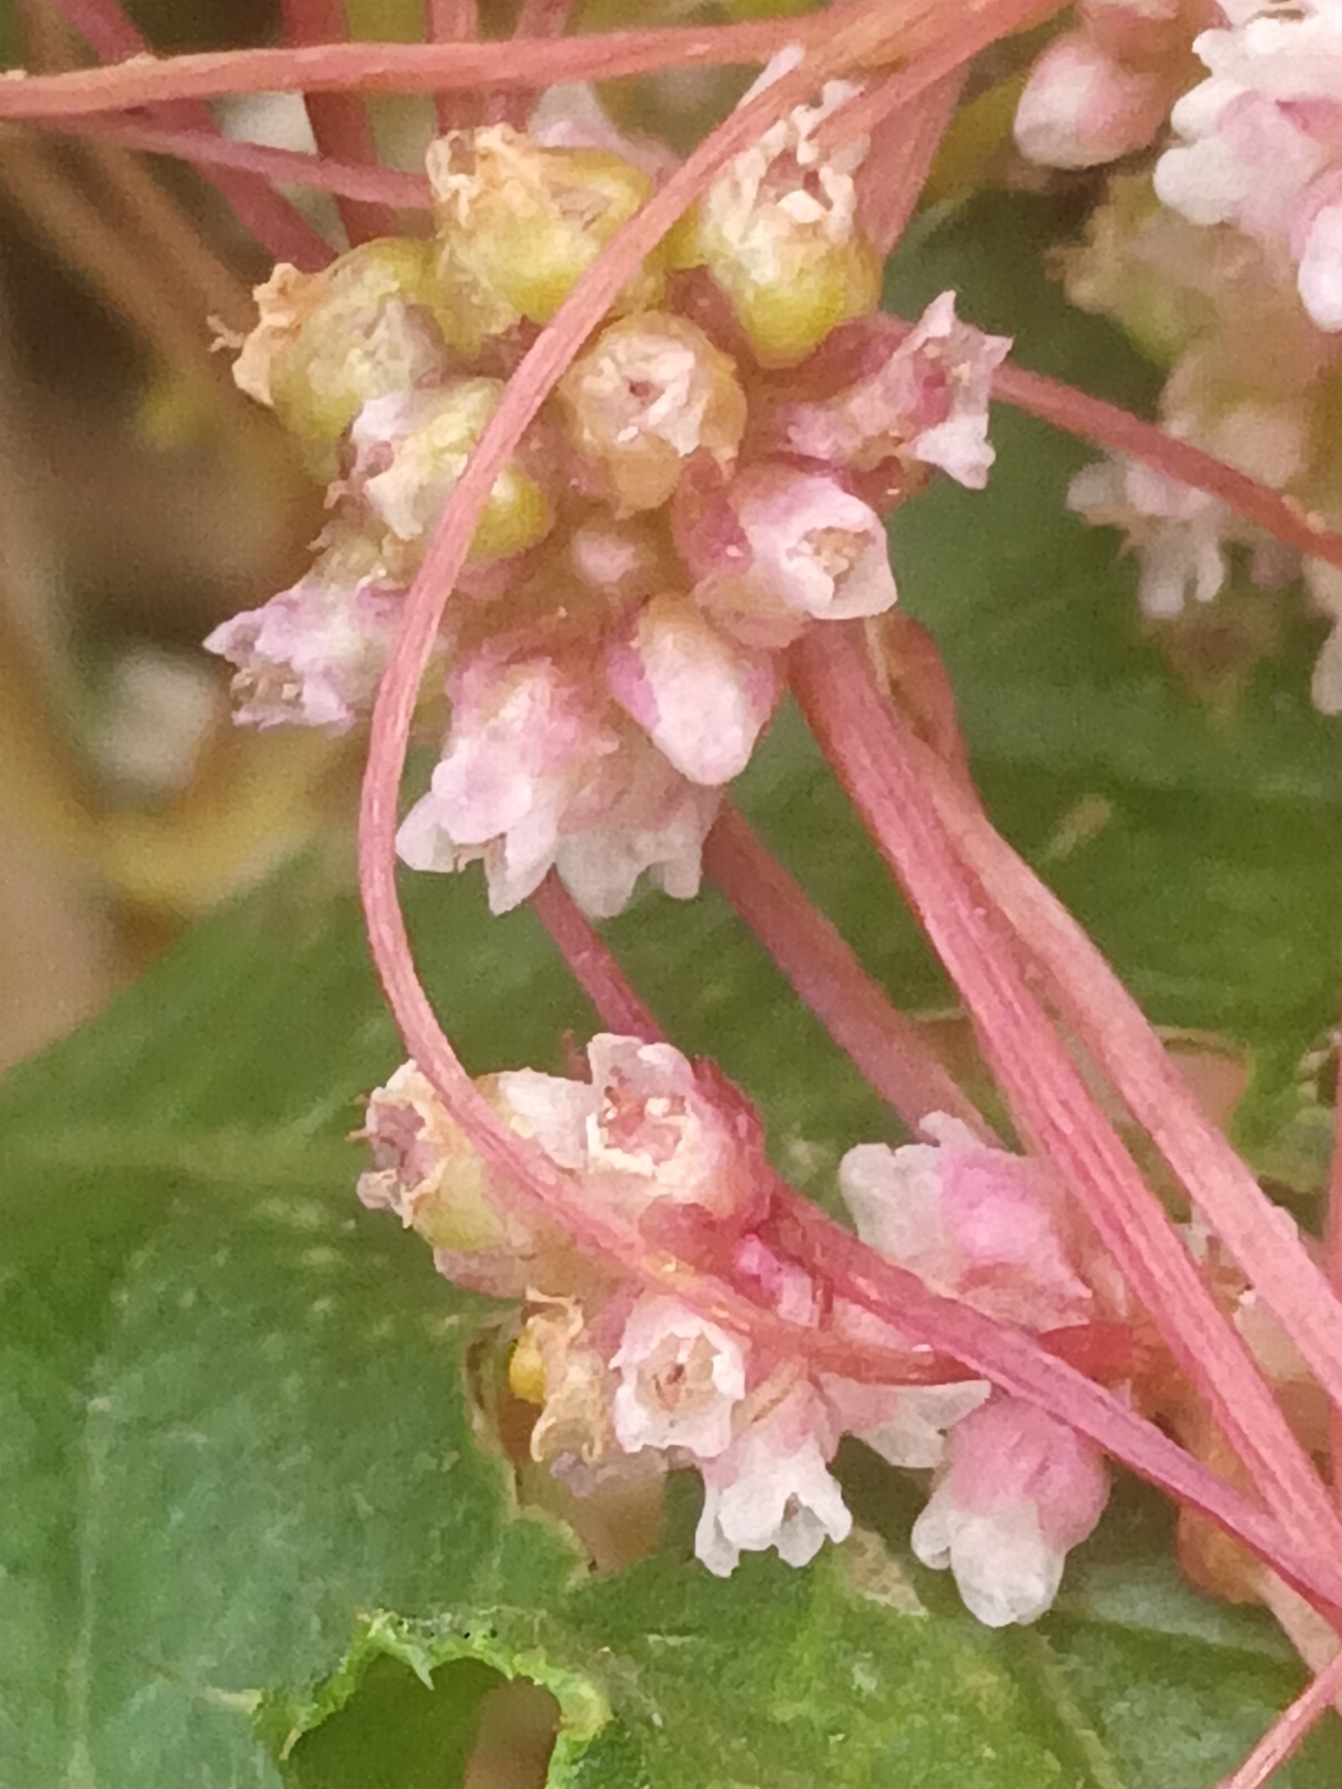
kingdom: Plantae
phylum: Tracheophyta
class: Magnoliopsida
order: Solanales
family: Convolvulaceae
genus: Cuscuta
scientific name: Cuscuta europaea
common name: Nælde-silke
